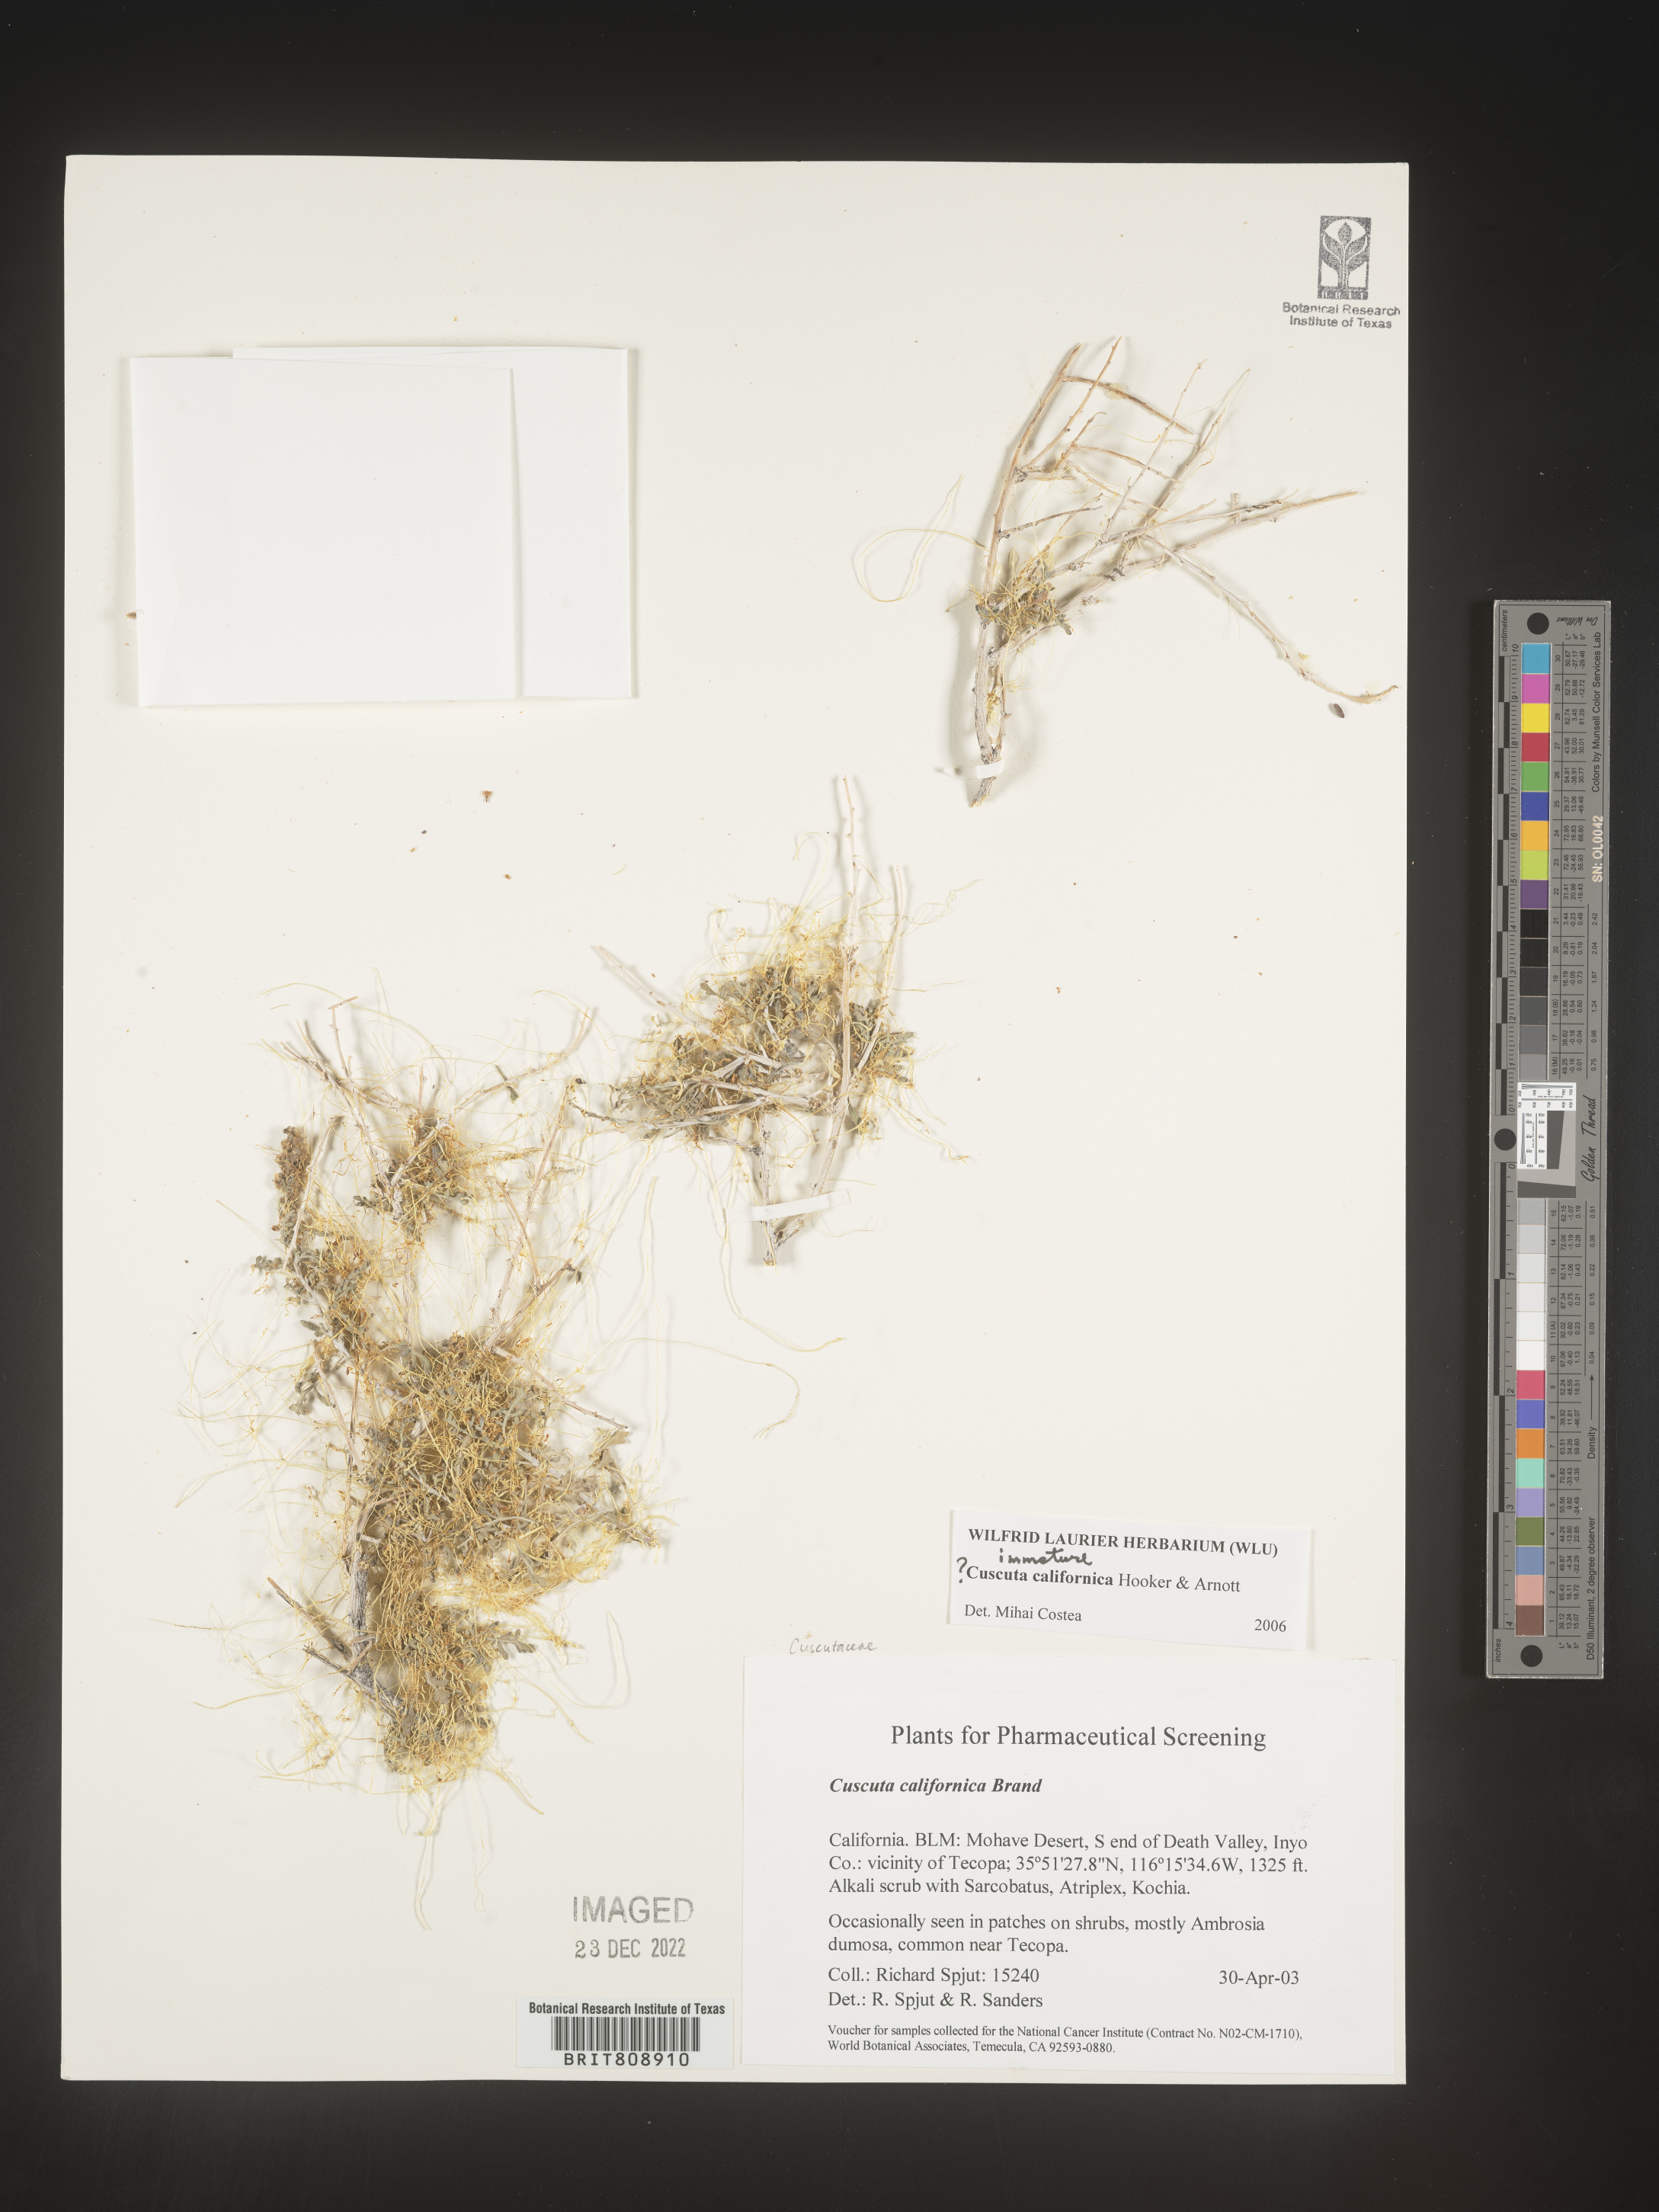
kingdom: Plantae
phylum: Tracheophyta
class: Magnoliopsida
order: Solanales
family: Convolvulaceae
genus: Cuscuta
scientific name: Cuscuta californica
